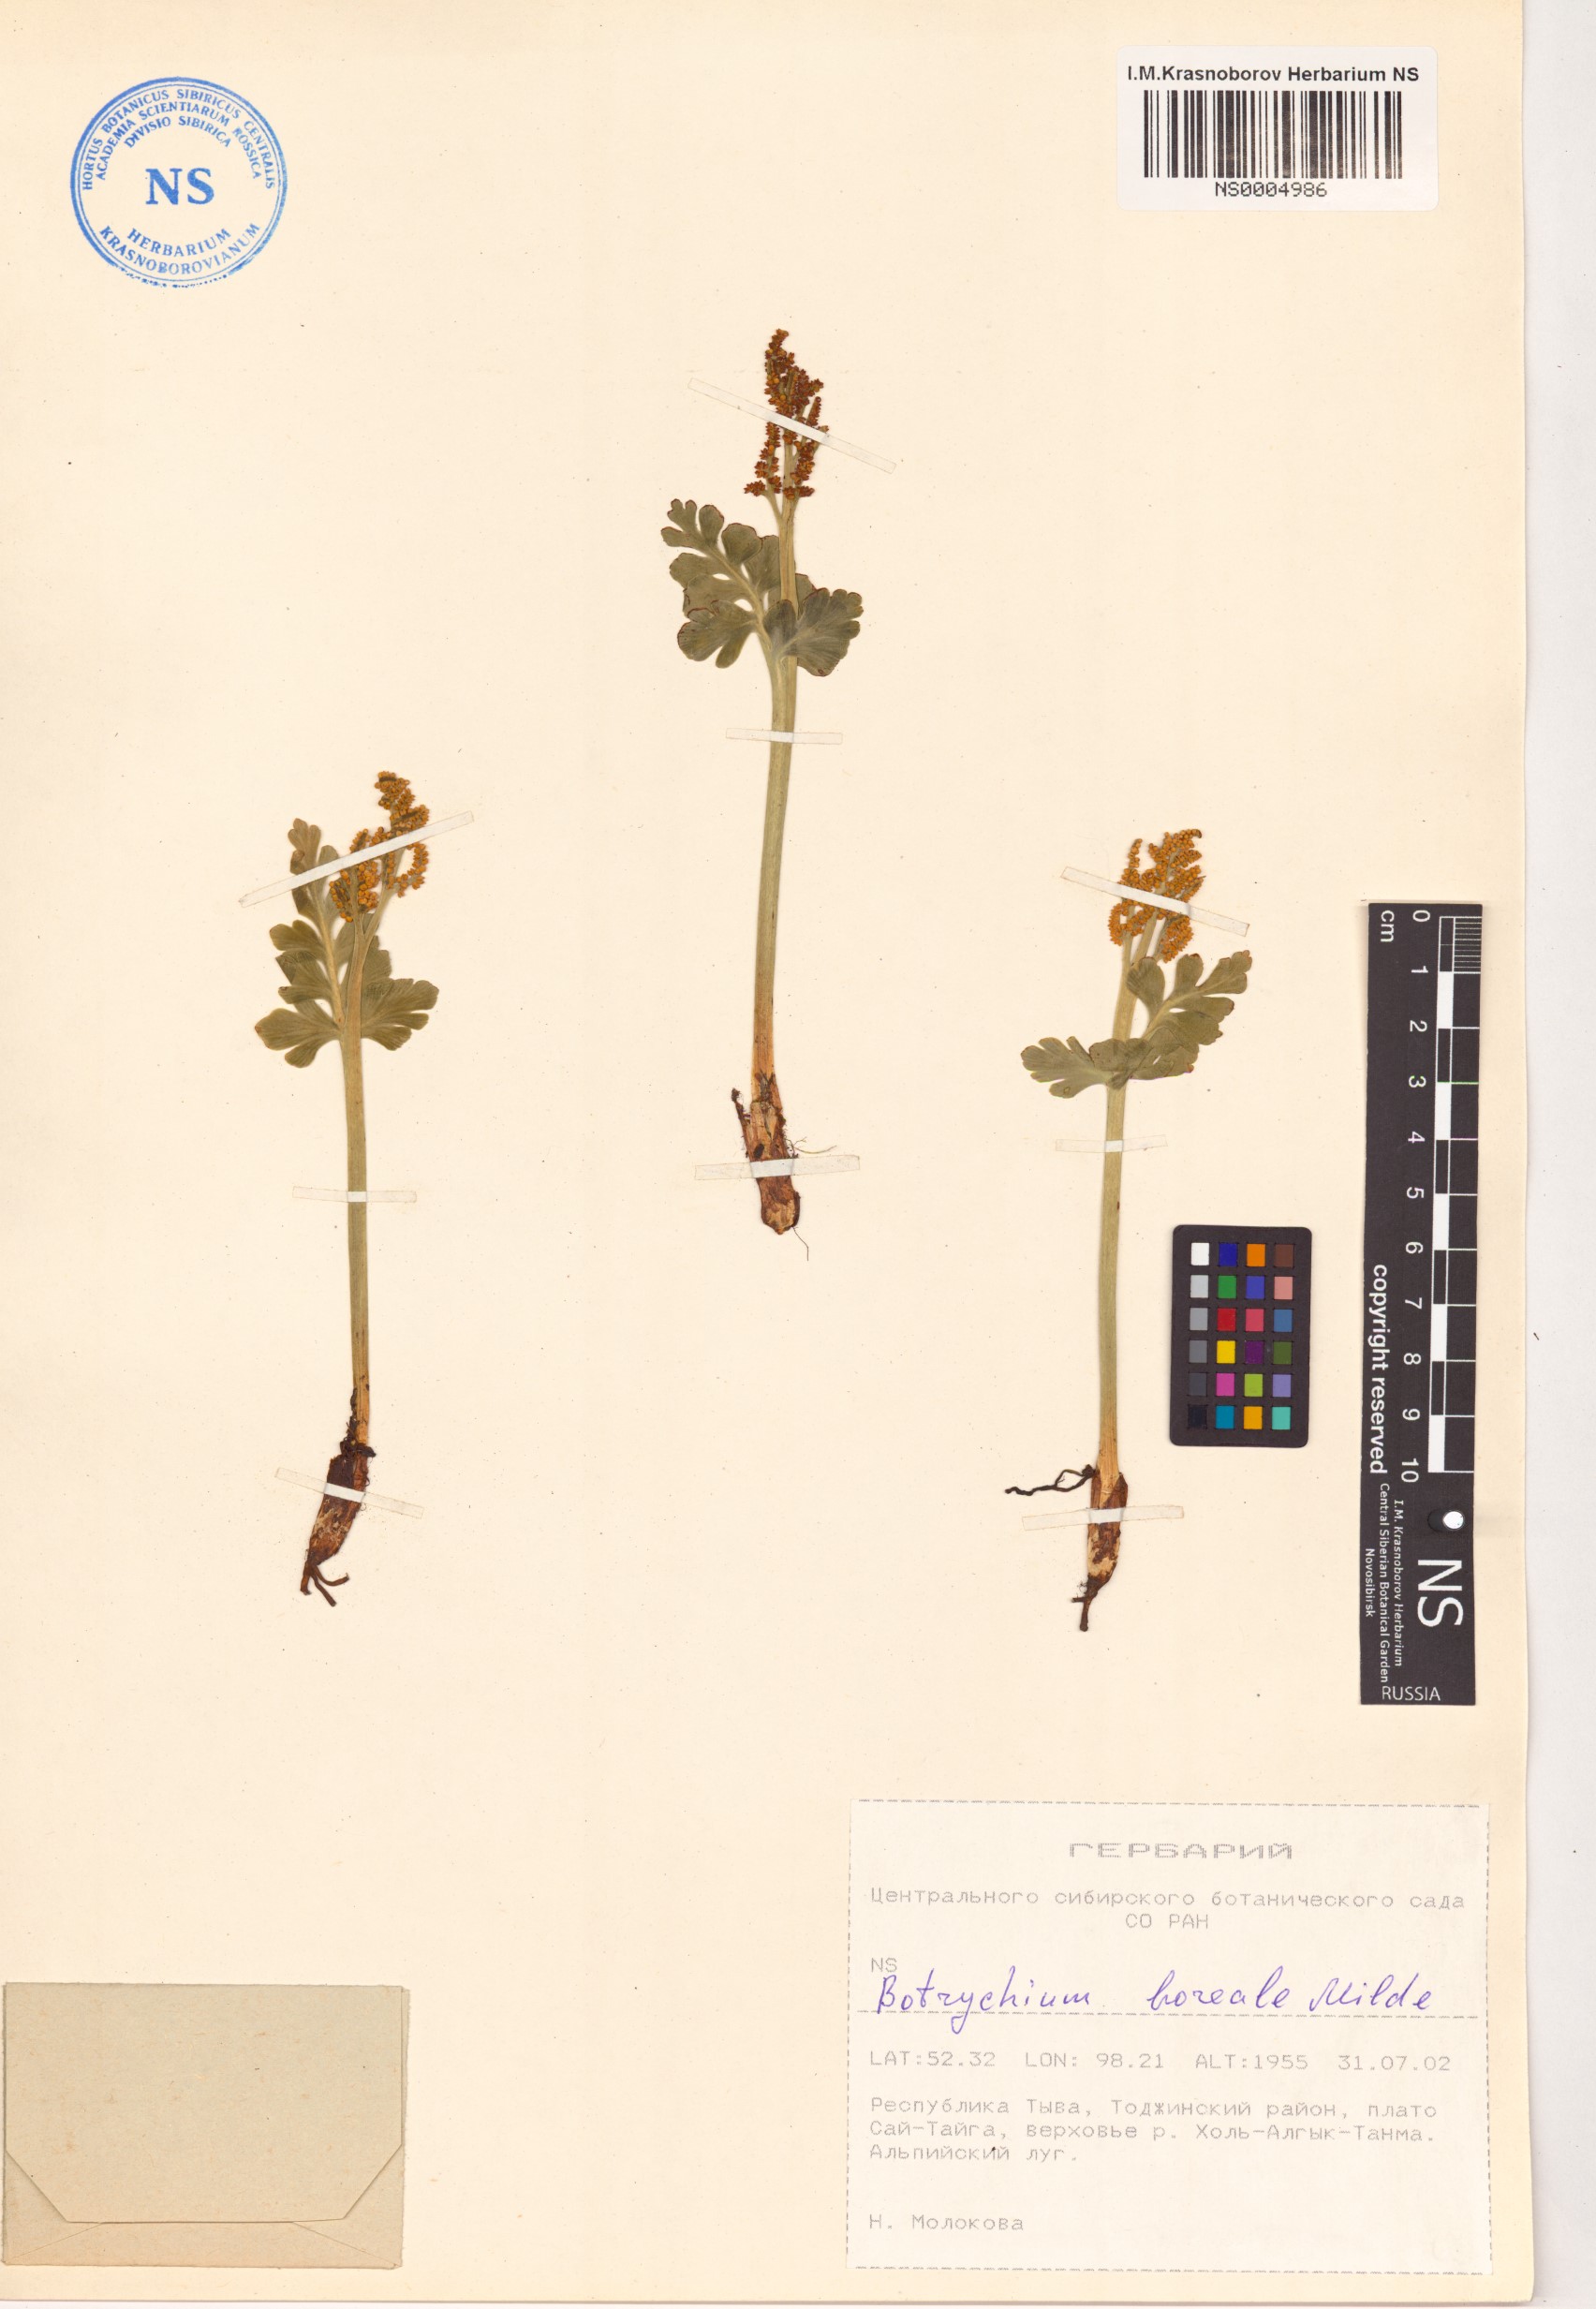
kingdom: Plantae
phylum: Tracheophyta
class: Polypodiopsida
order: Ophioglossales
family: Ophioglossaceae
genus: Botrychium
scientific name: Botrychium boreale
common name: Boreal moonwort
